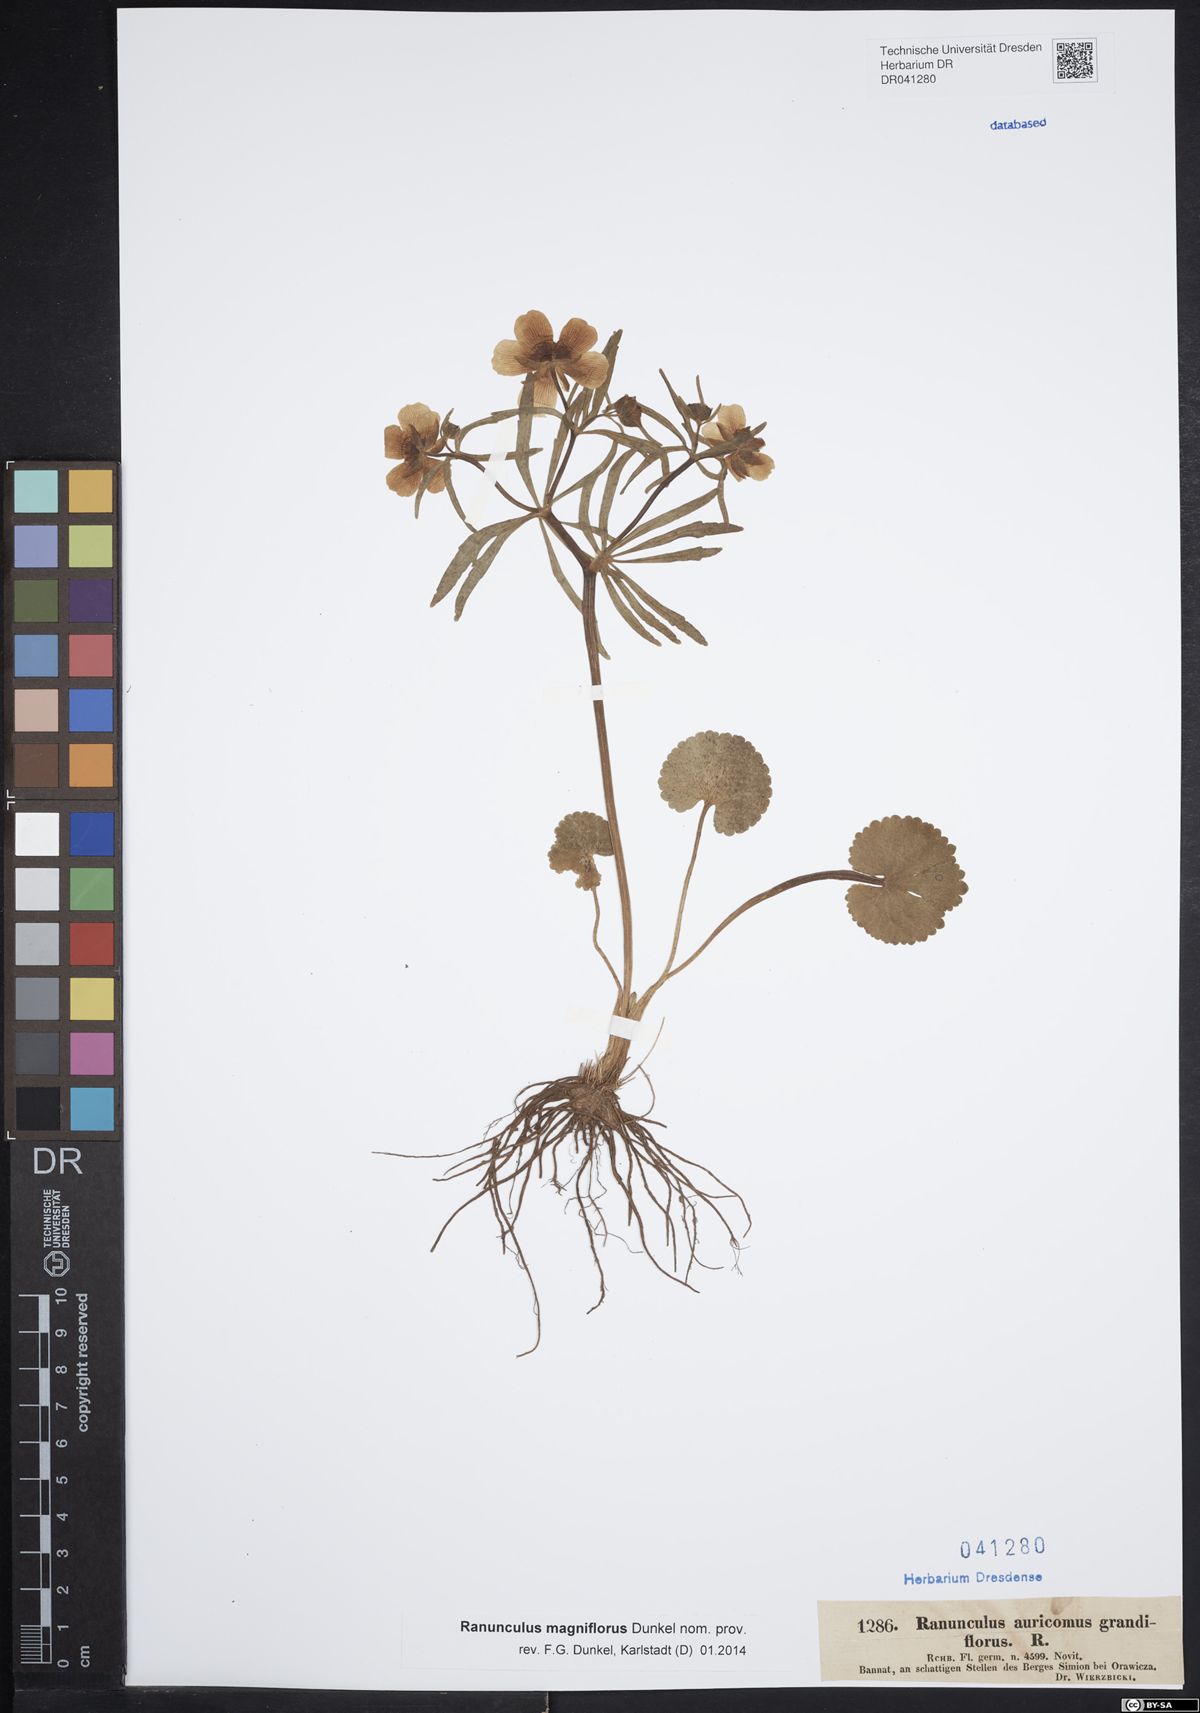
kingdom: Plantae
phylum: Tracheophyta
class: Magnoliopsida
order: Ranunculales
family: Ranunculaceae
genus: Ranunculus
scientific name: Ranunculus auricomus
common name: Goldilocks buttercup
